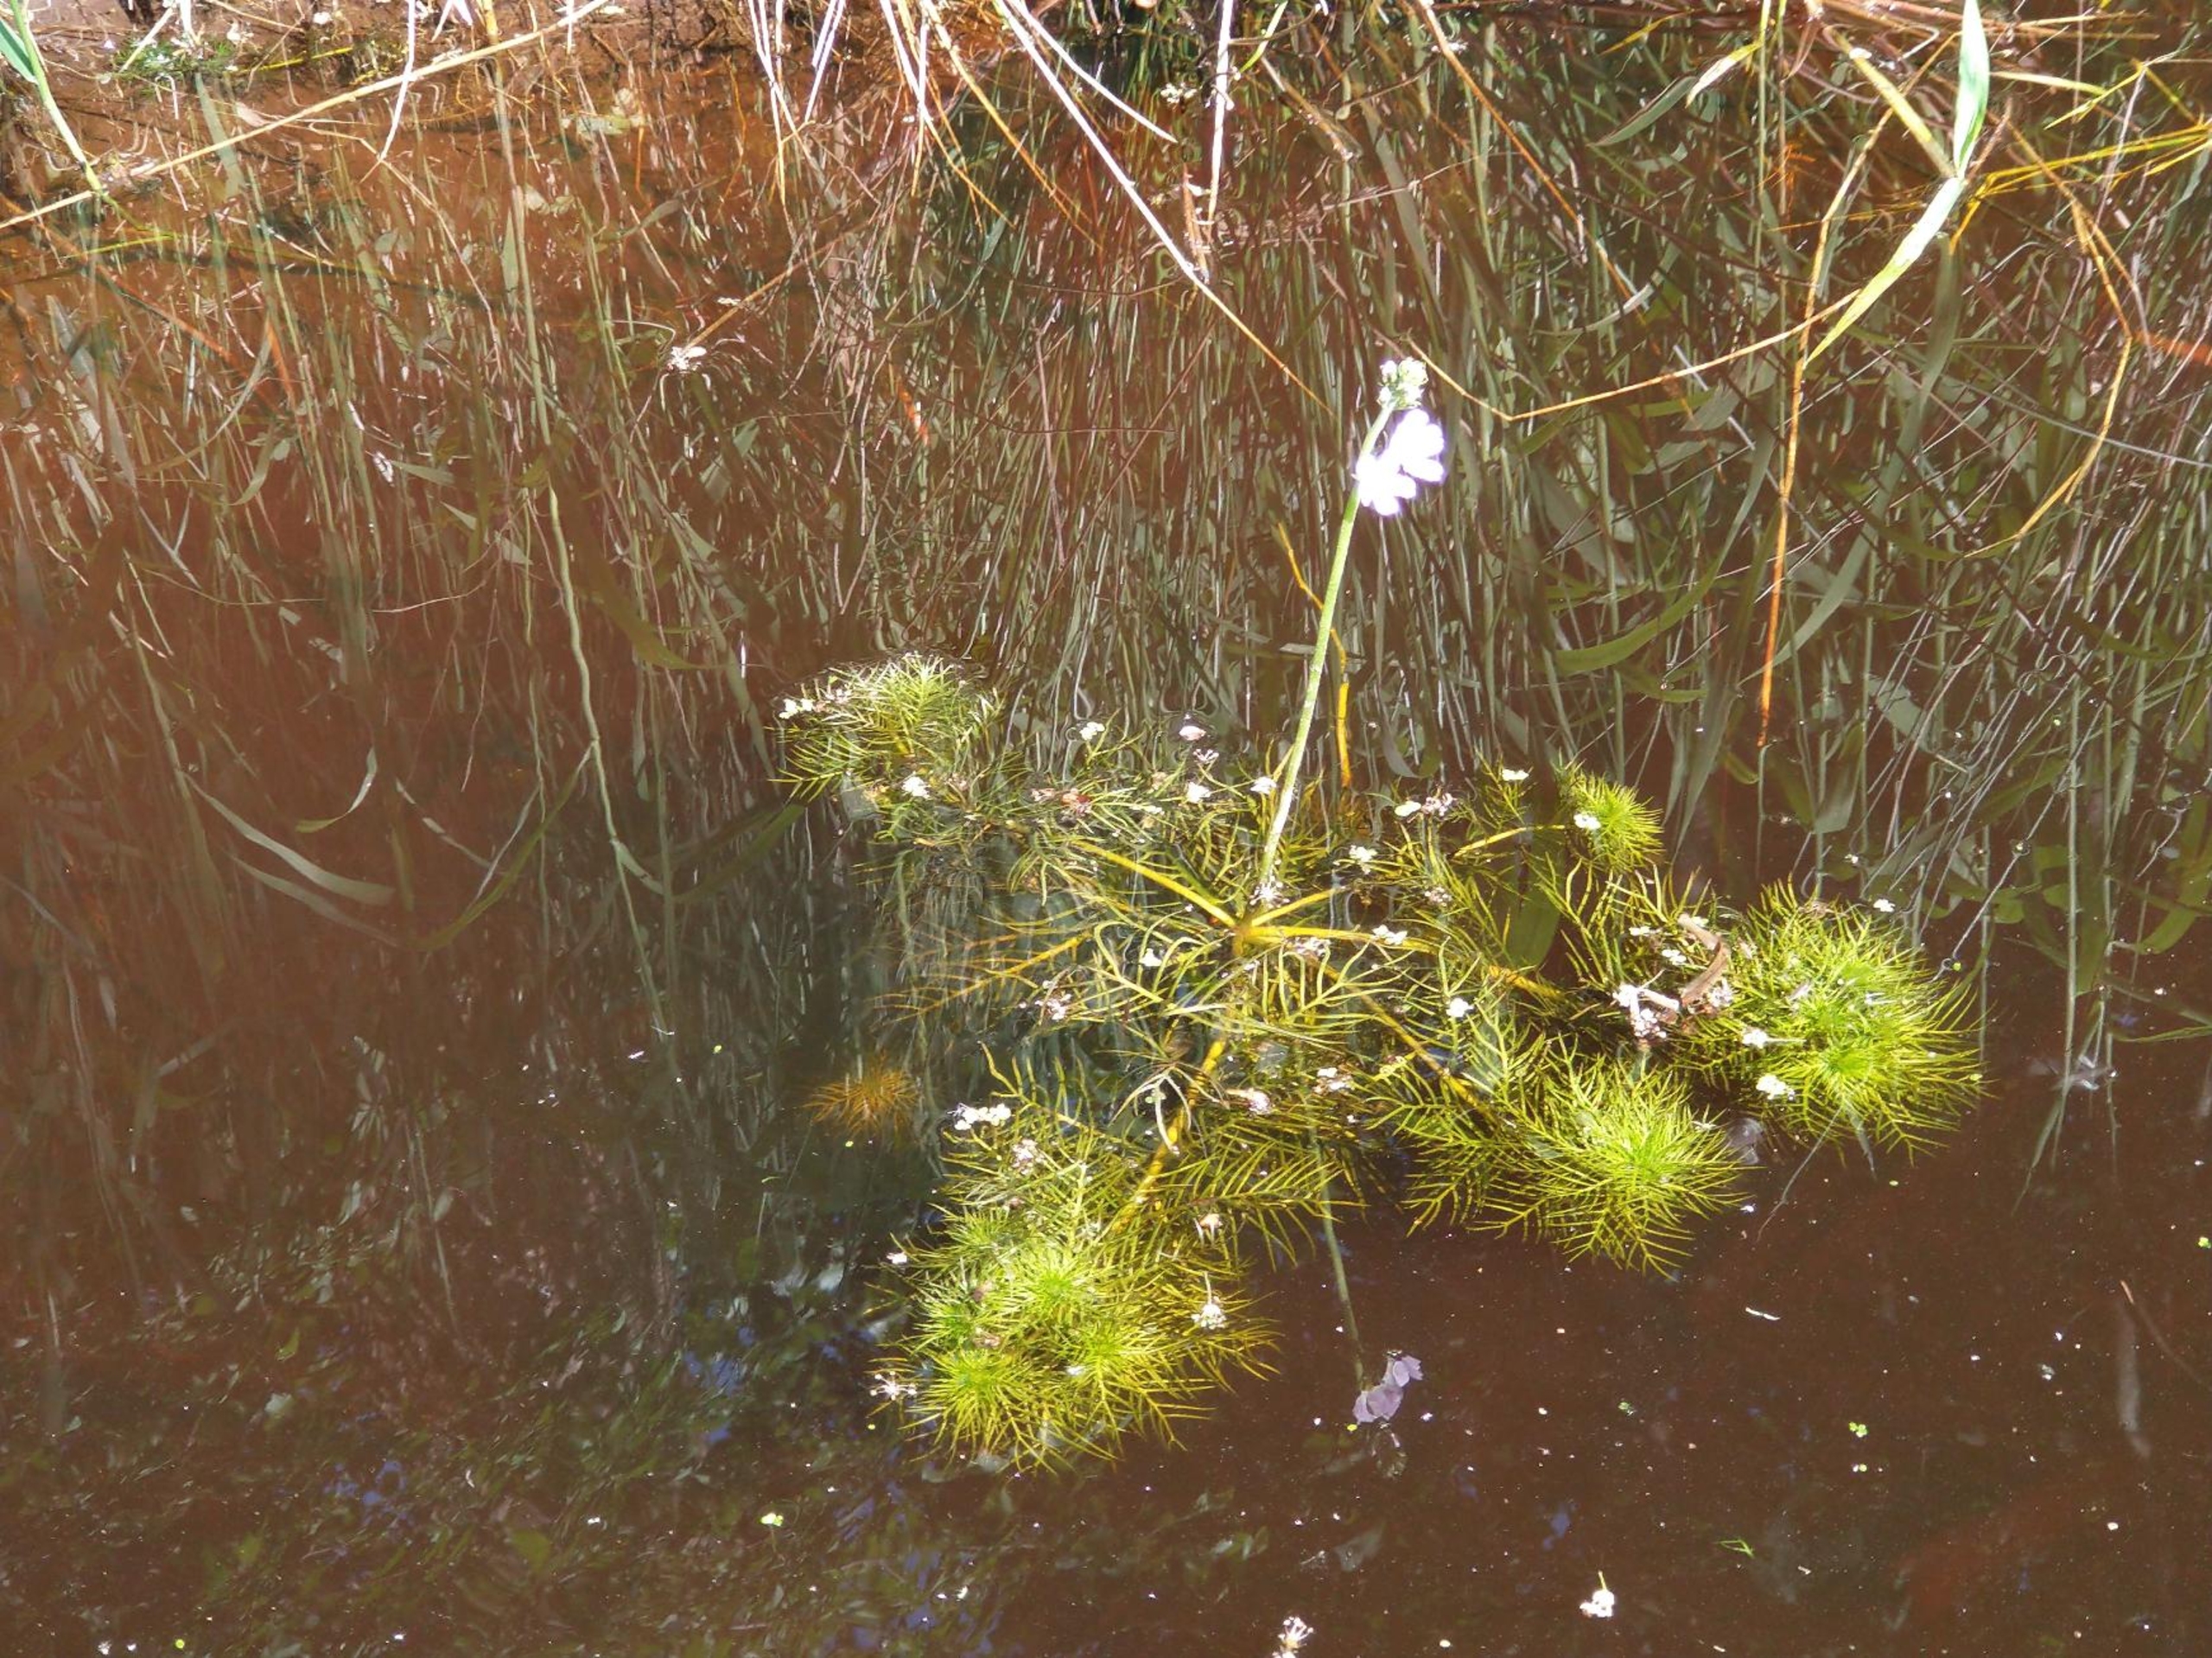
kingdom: Plantae
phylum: Tracheophyta
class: Magnoliopsida
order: Ericales
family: Primulaceae
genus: Hottonia
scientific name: Hottonia palustris
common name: Vandrøllike
